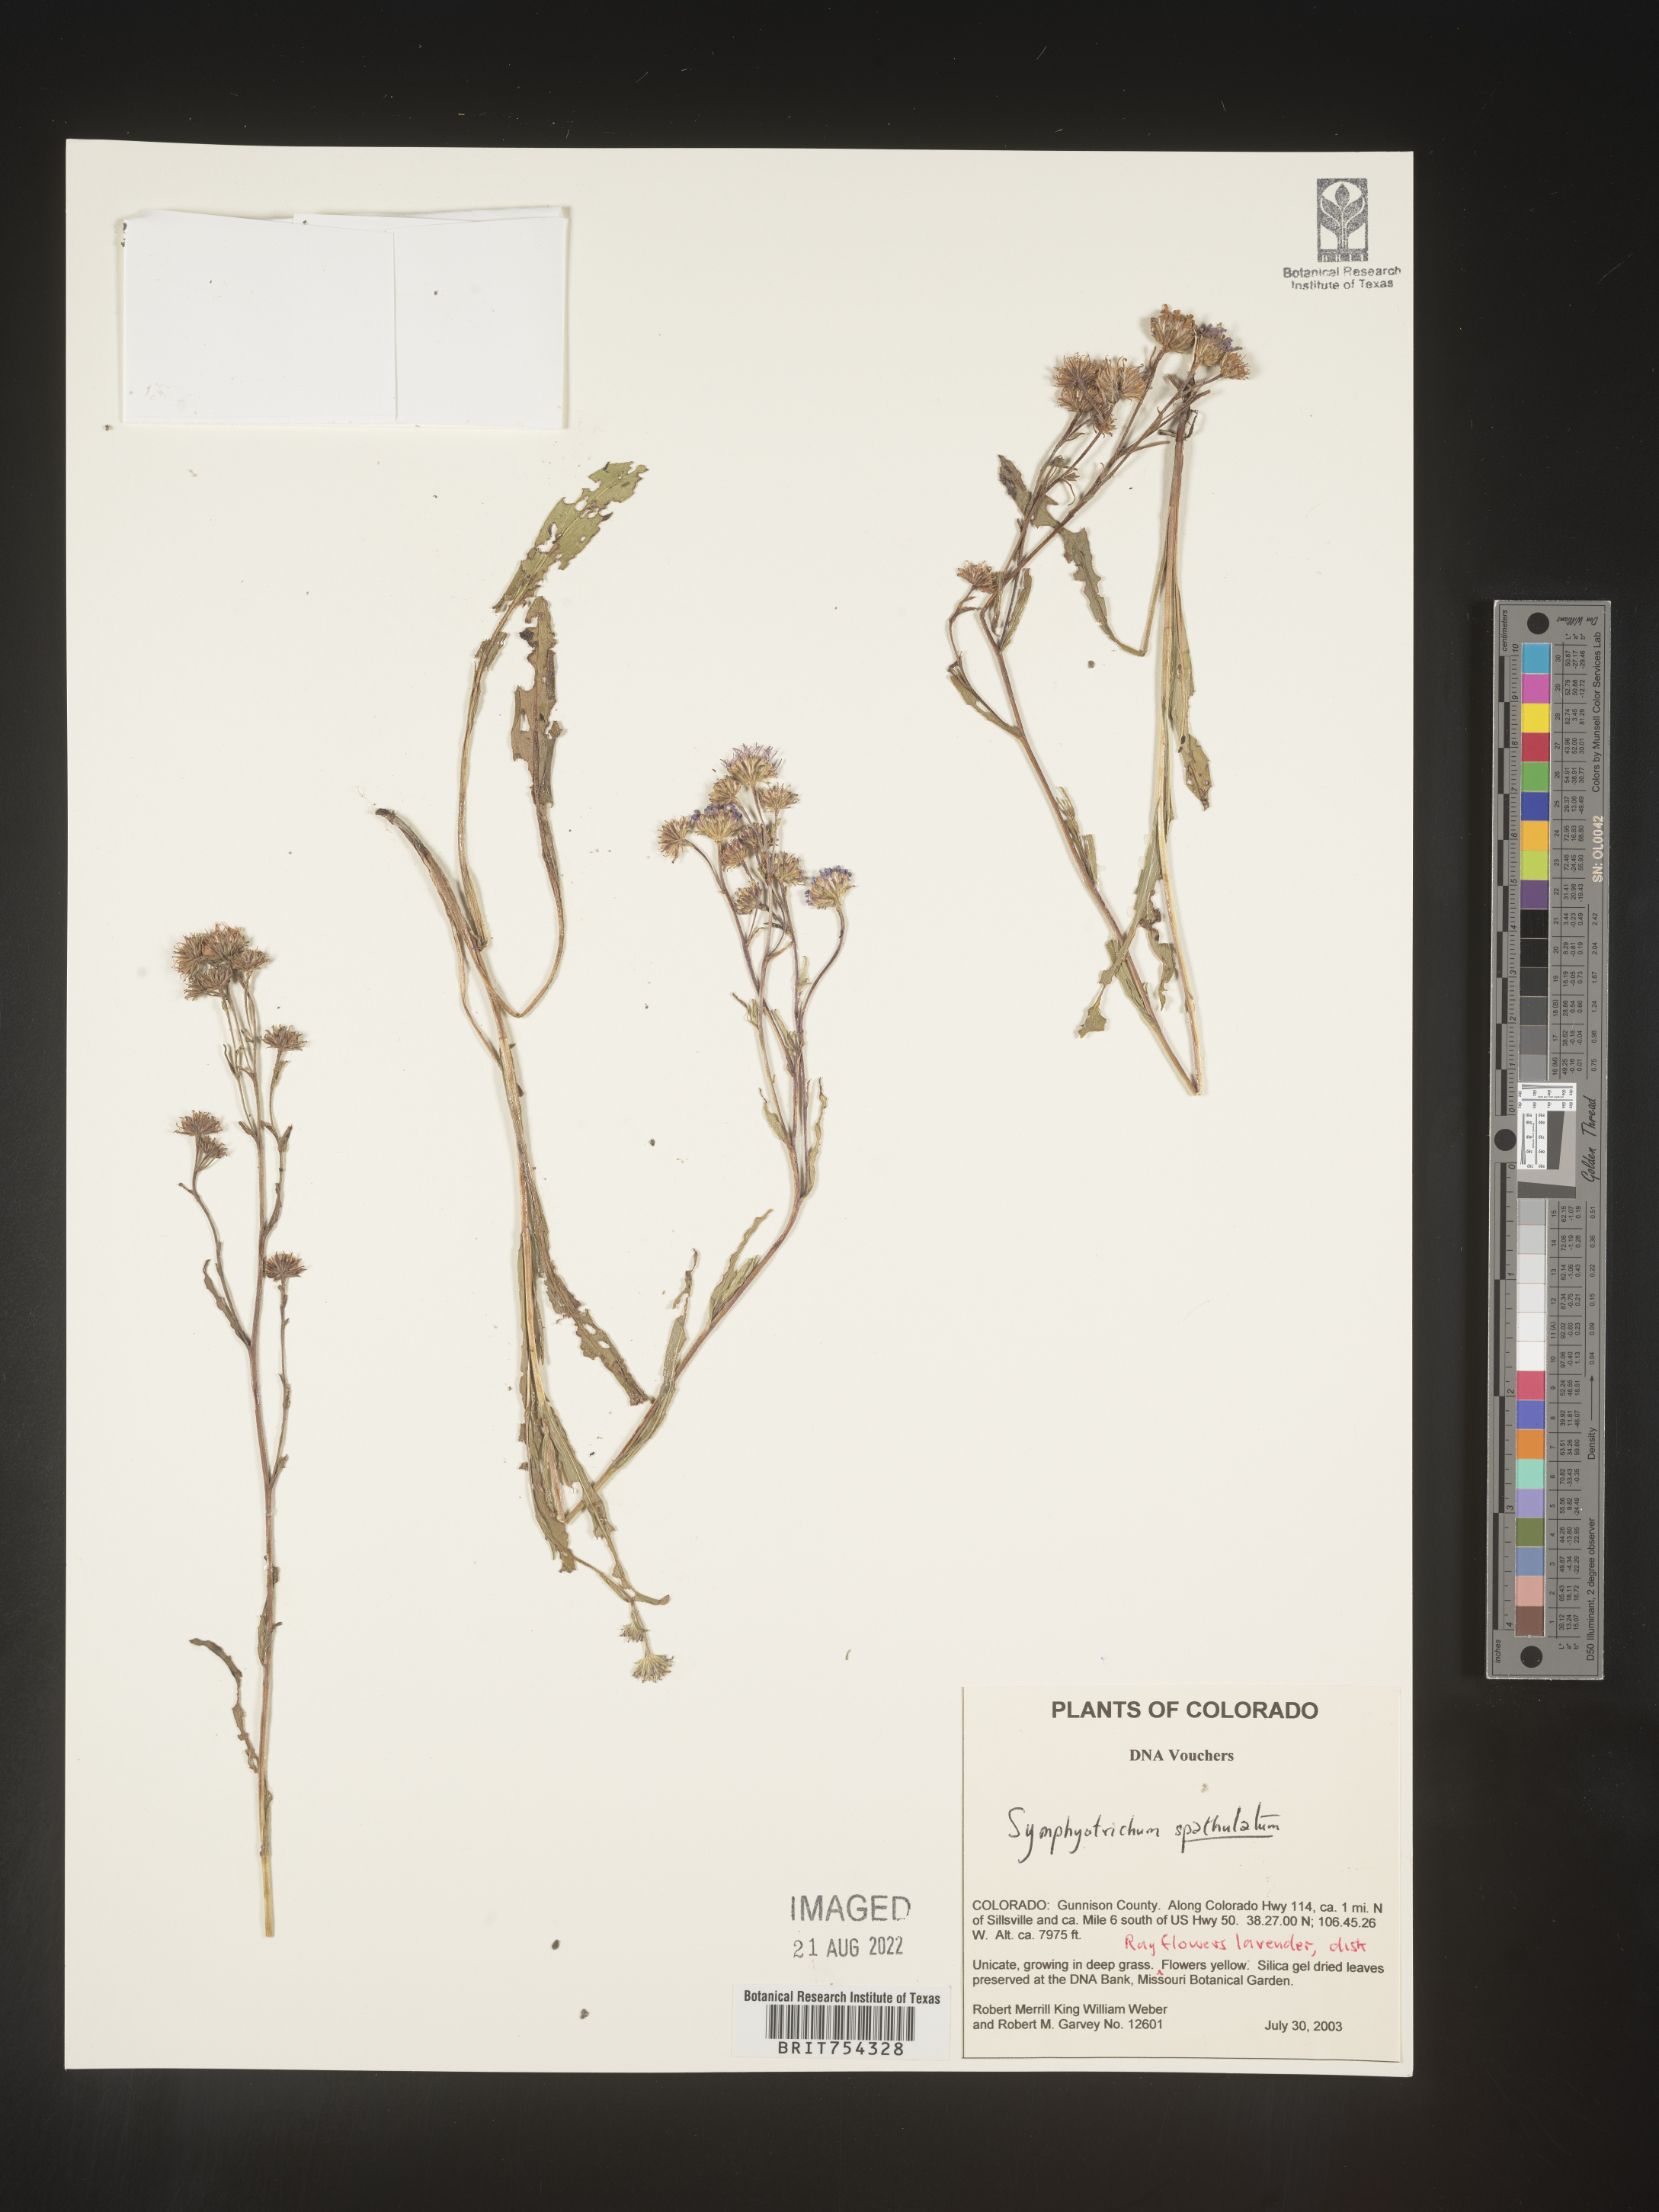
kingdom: Plantae
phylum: Tracheophyta
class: Magnoliopsida
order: Asterales
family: Asteraceae
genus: Symphyotrichum
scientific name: Symphyotrichum spathulatum
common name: Western mountain aster
